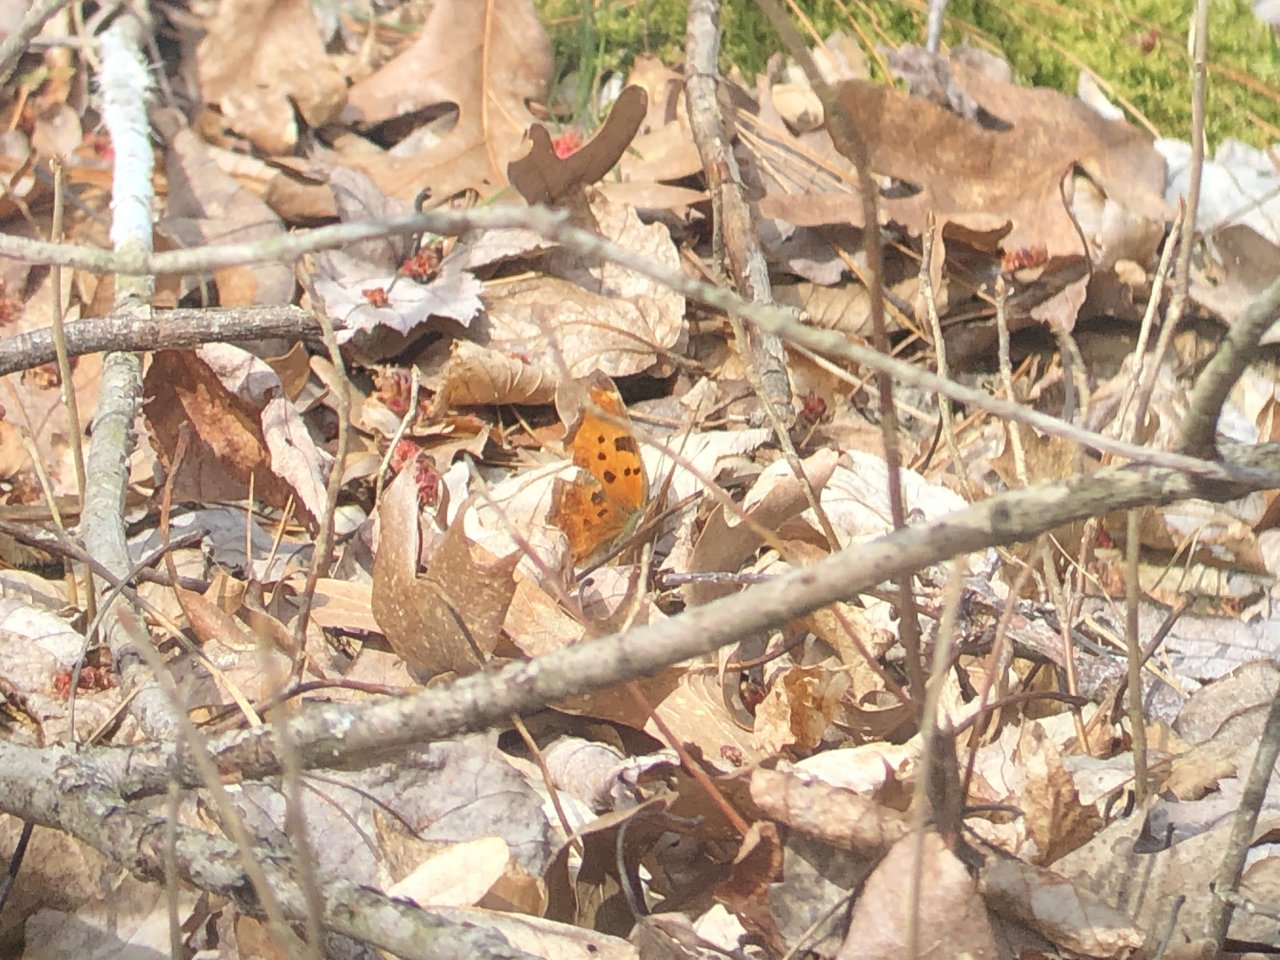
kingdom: Animalia
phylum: Arthropoda
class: Insecta
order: Lepidoptera
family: Nymphalidae
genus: Polygonia
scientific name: Polygonia comma
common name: Eastern Comma
